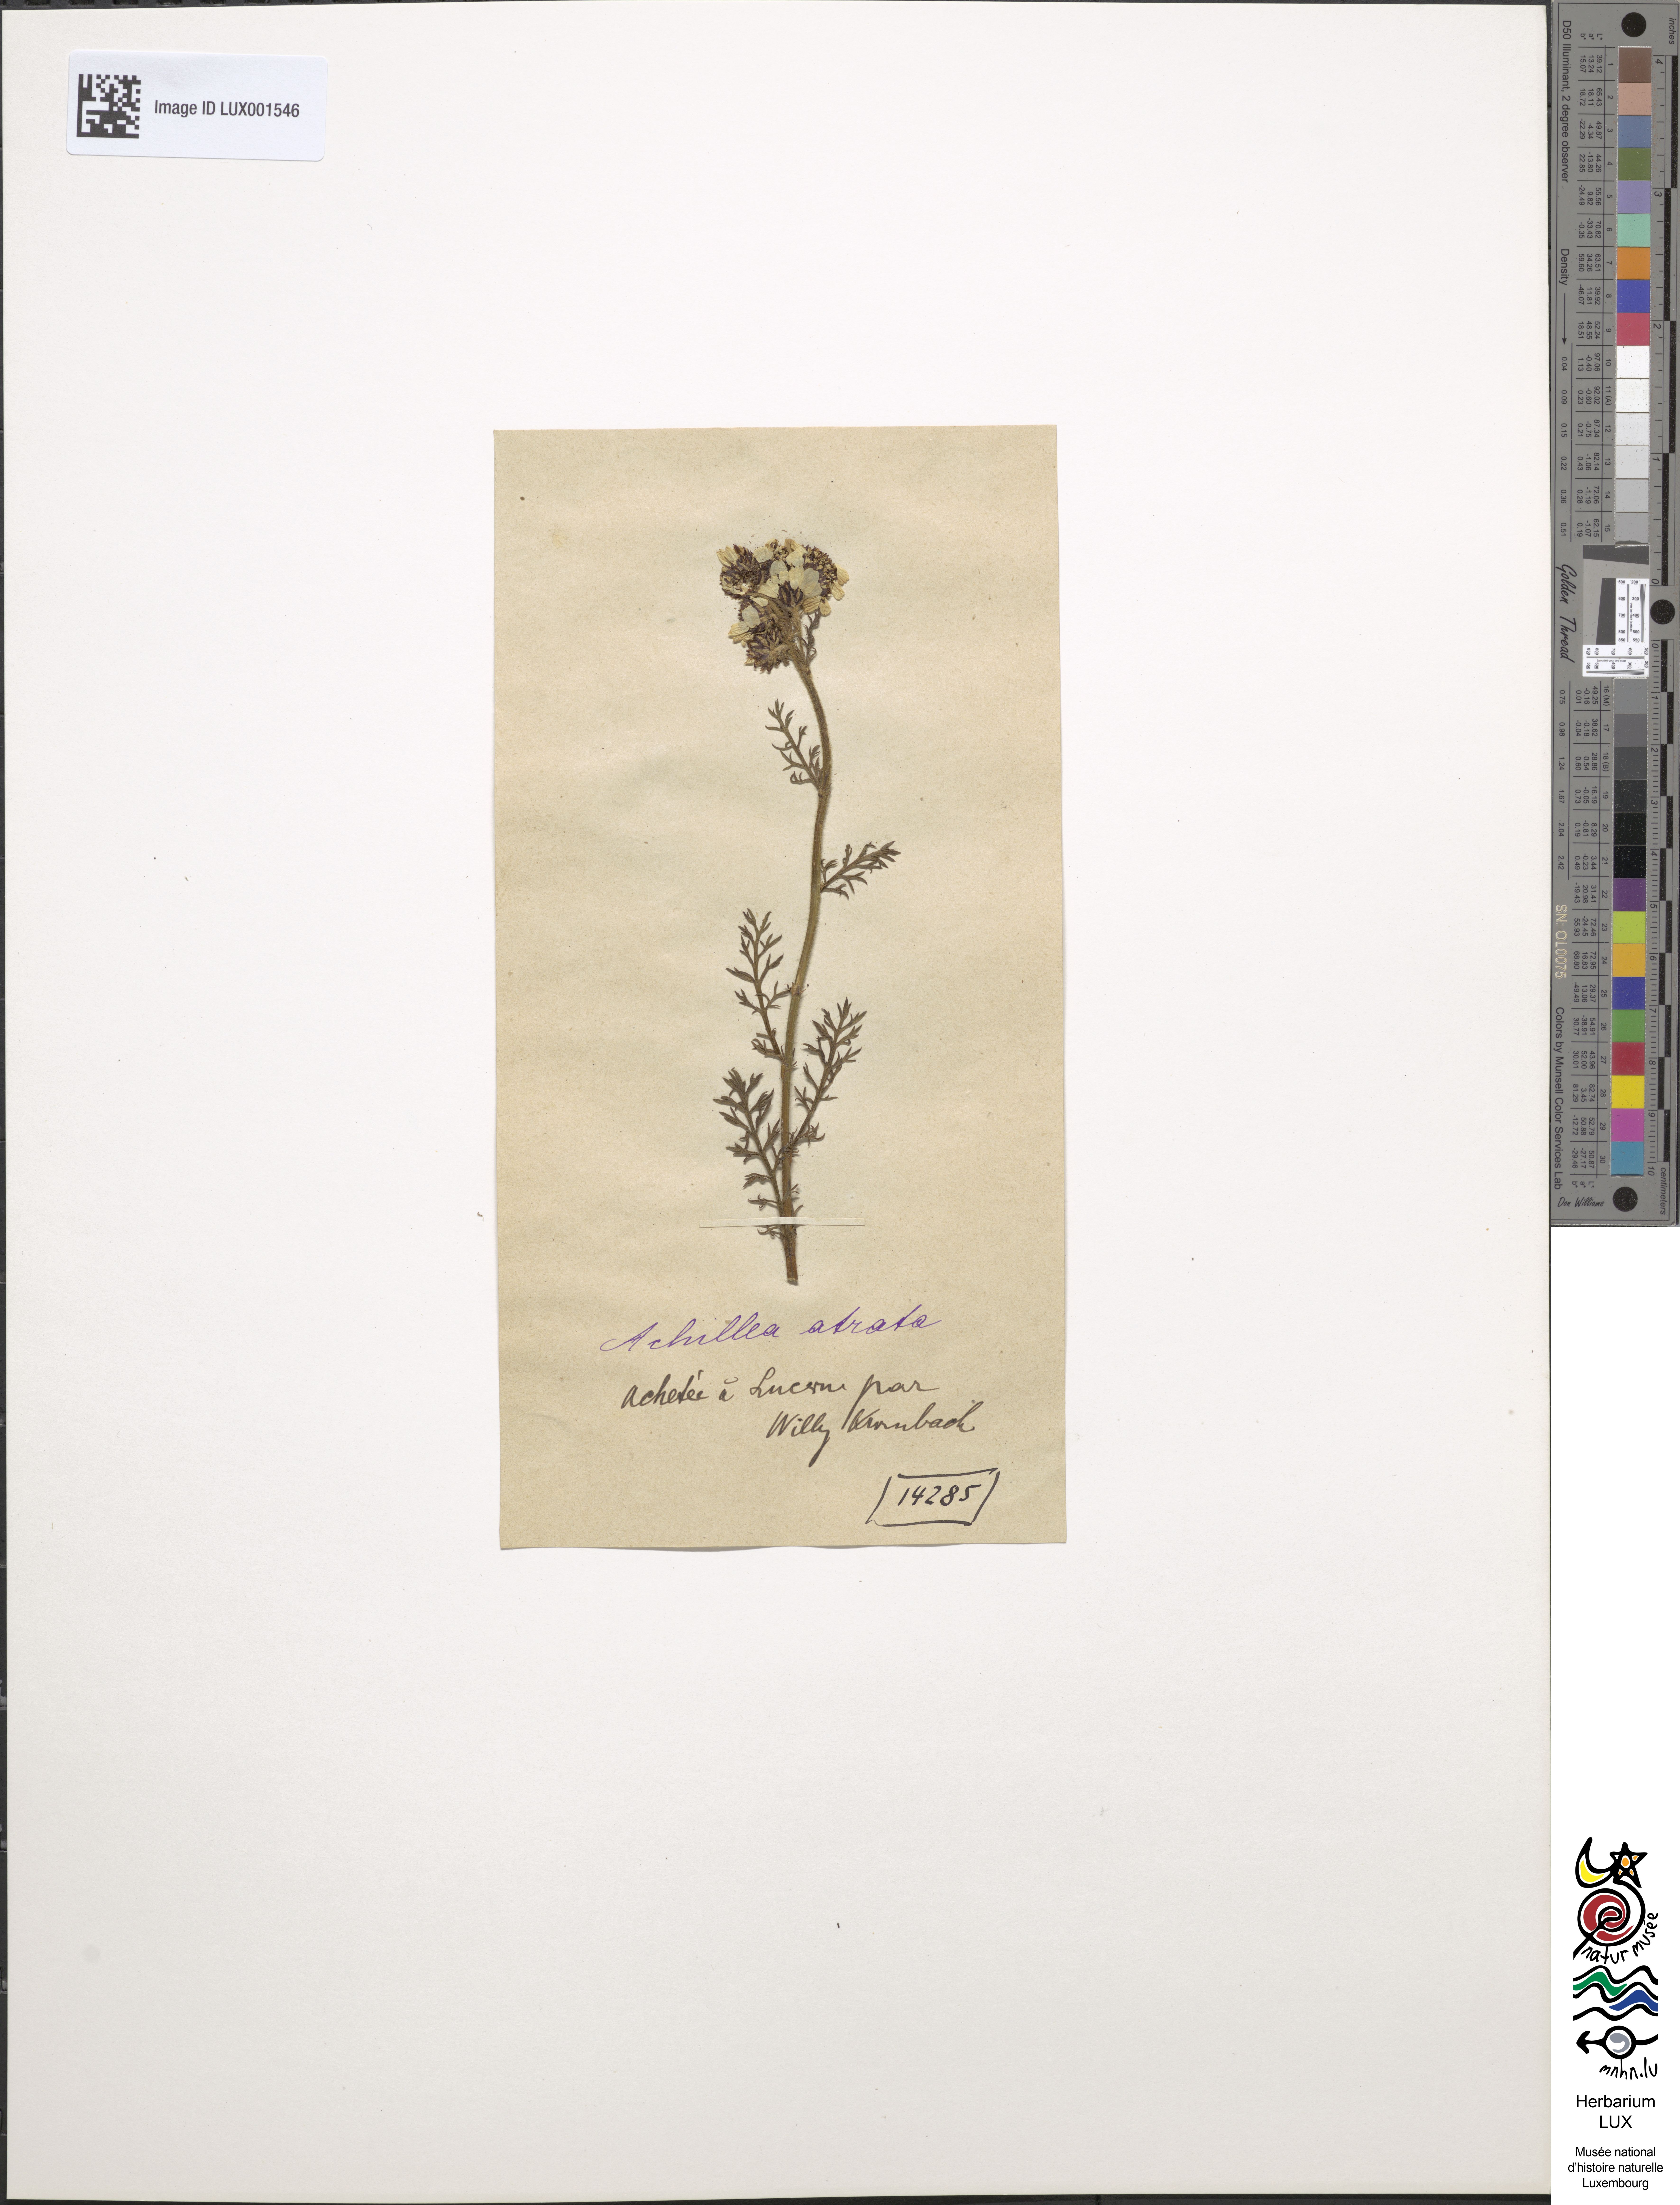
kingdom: Plantae
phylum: Tracheophyta
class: Magnoliopsida
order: Asterales
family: Asteraceae
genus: Achillea
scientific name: Achillea atrata
